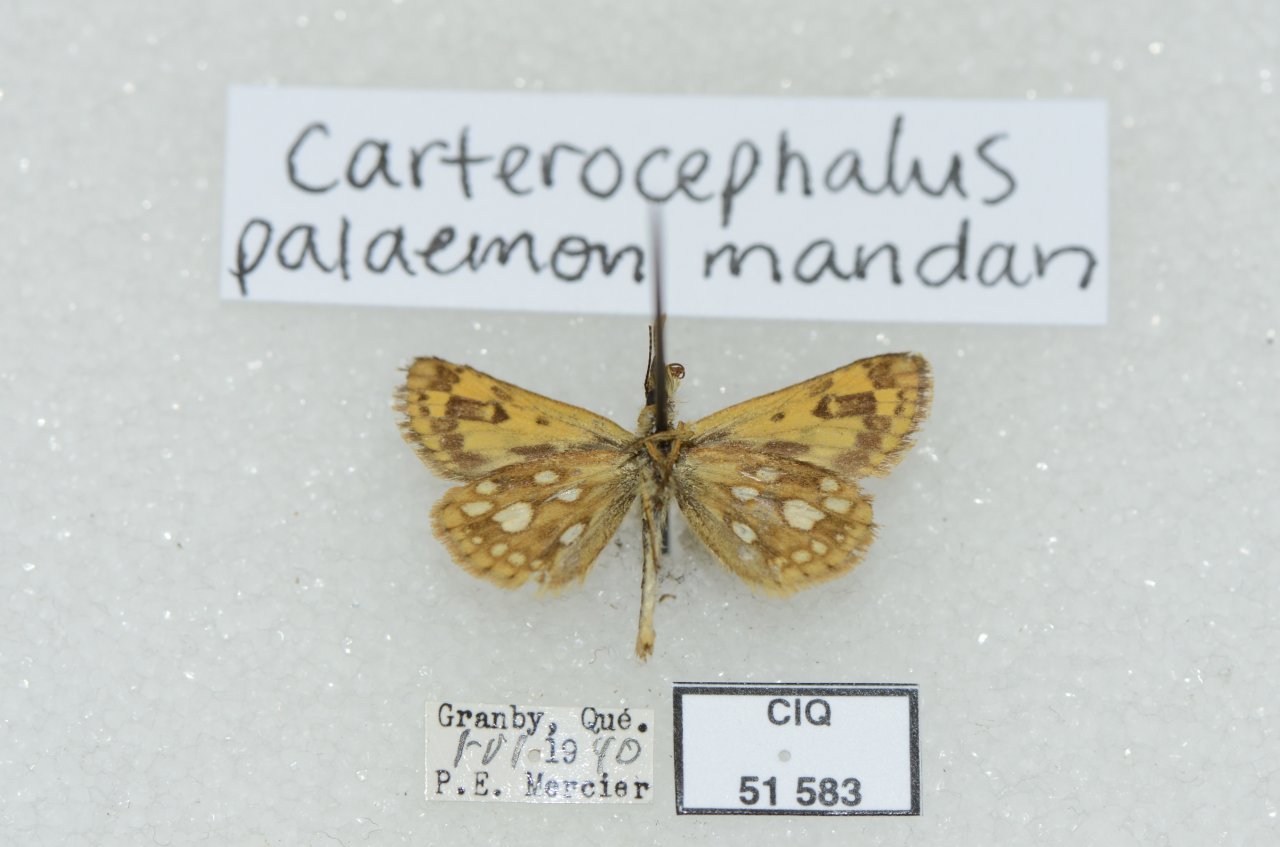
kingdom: Animalia
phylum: Arthropoda
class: Insecta
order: Lepidoptera
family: Hesperiidae
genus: Carterocephalus
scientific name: Carterocephalus palaemon
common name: Chequered Skipper
